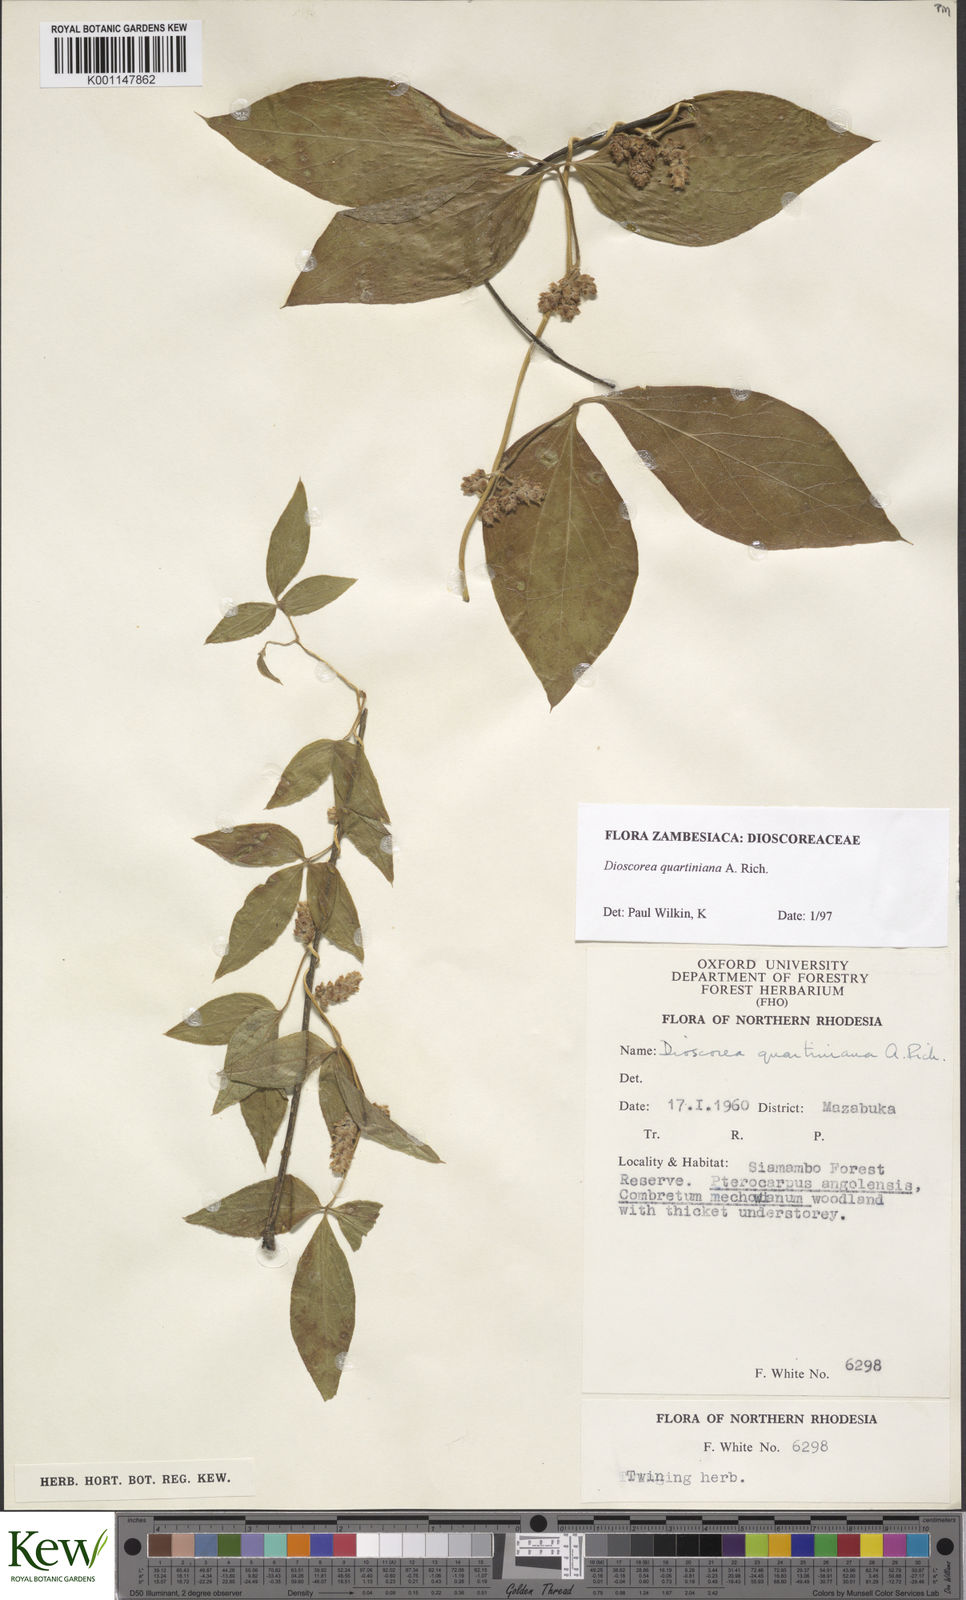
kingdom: Plantae
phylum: Tracheophyta
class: Liliopsida
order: Dioscoreales
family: Dioscoreaceae
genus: Dioscorea
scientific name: Dioscorea quartiniana
